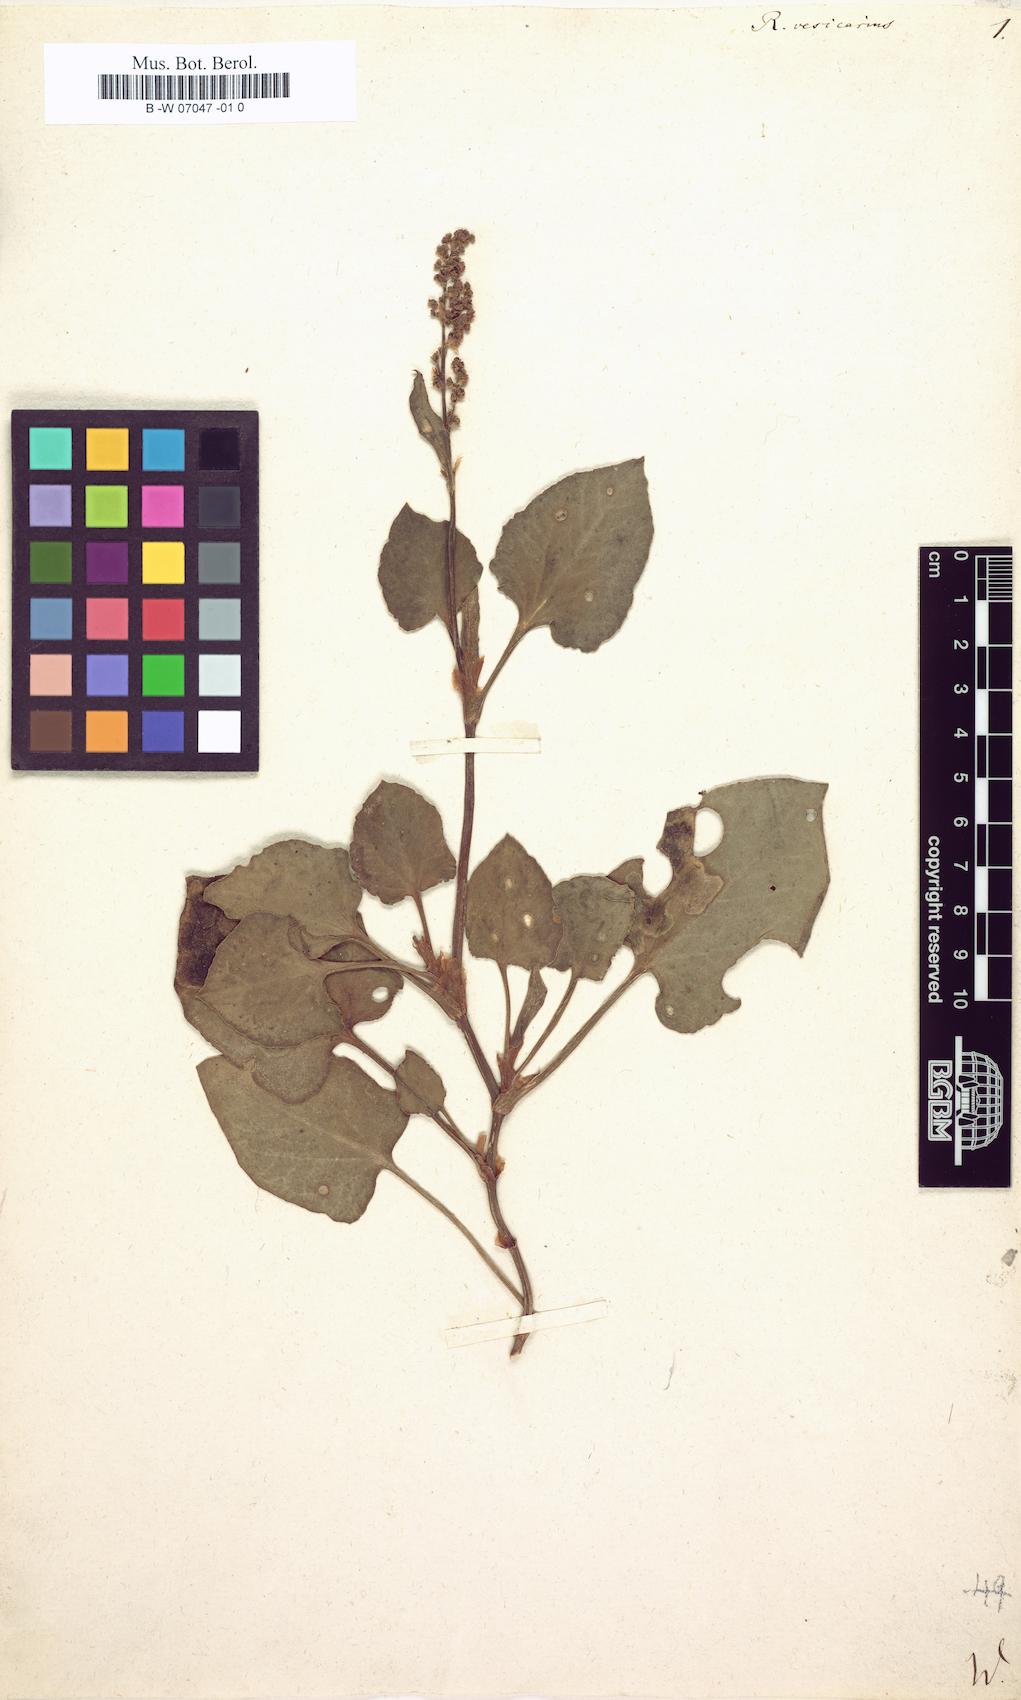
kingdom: Plantae
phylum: Tracheophyta
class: Magnoliopsida
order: Caryophyllales
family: Polygonaceae
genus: Rumex
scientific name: Rumex vesicarius
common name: Bladder dock
